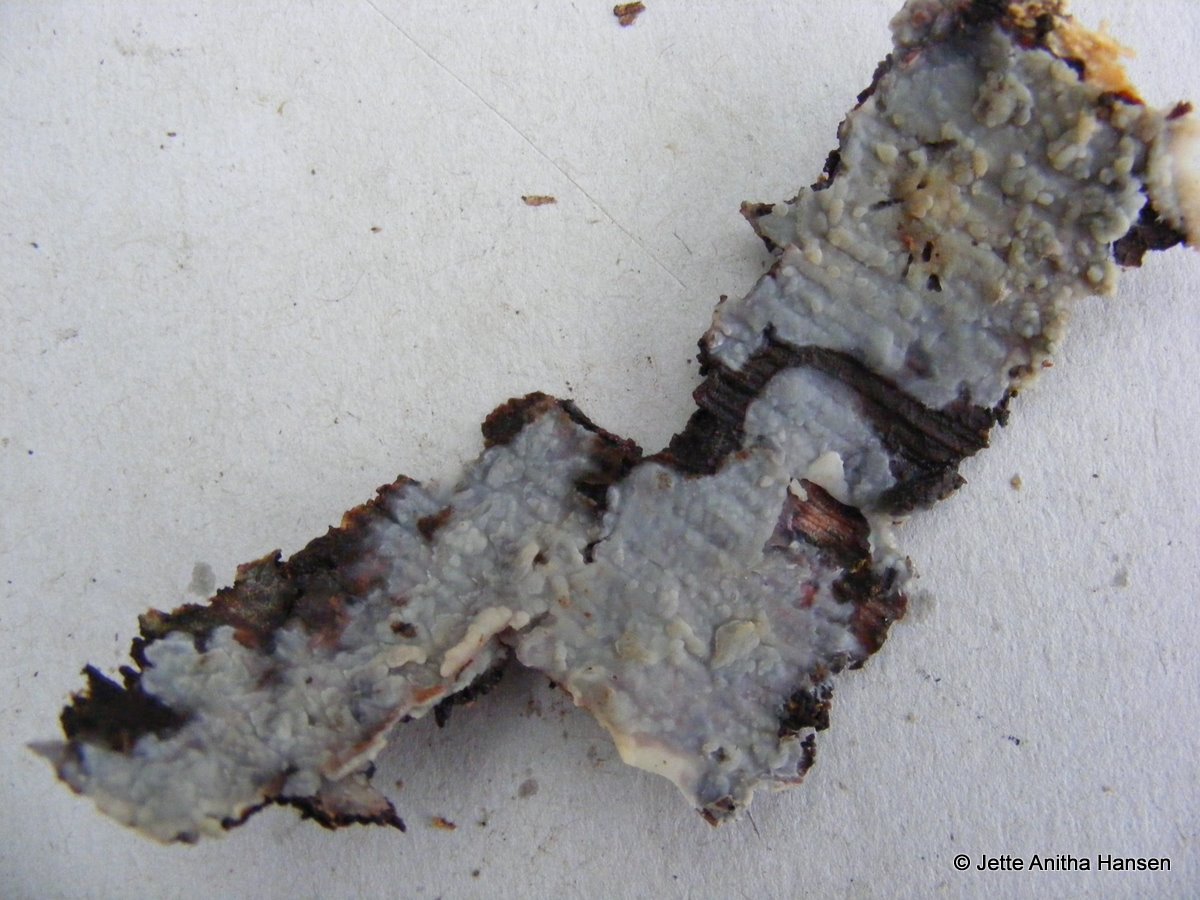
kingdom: Fungi
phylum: Basidiomycota
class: Agaricomycetes
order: Agaricales
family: Radulomycetaceae
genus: Radulomyces
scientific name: Radulomyces confluens
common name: glat naftalinskind
